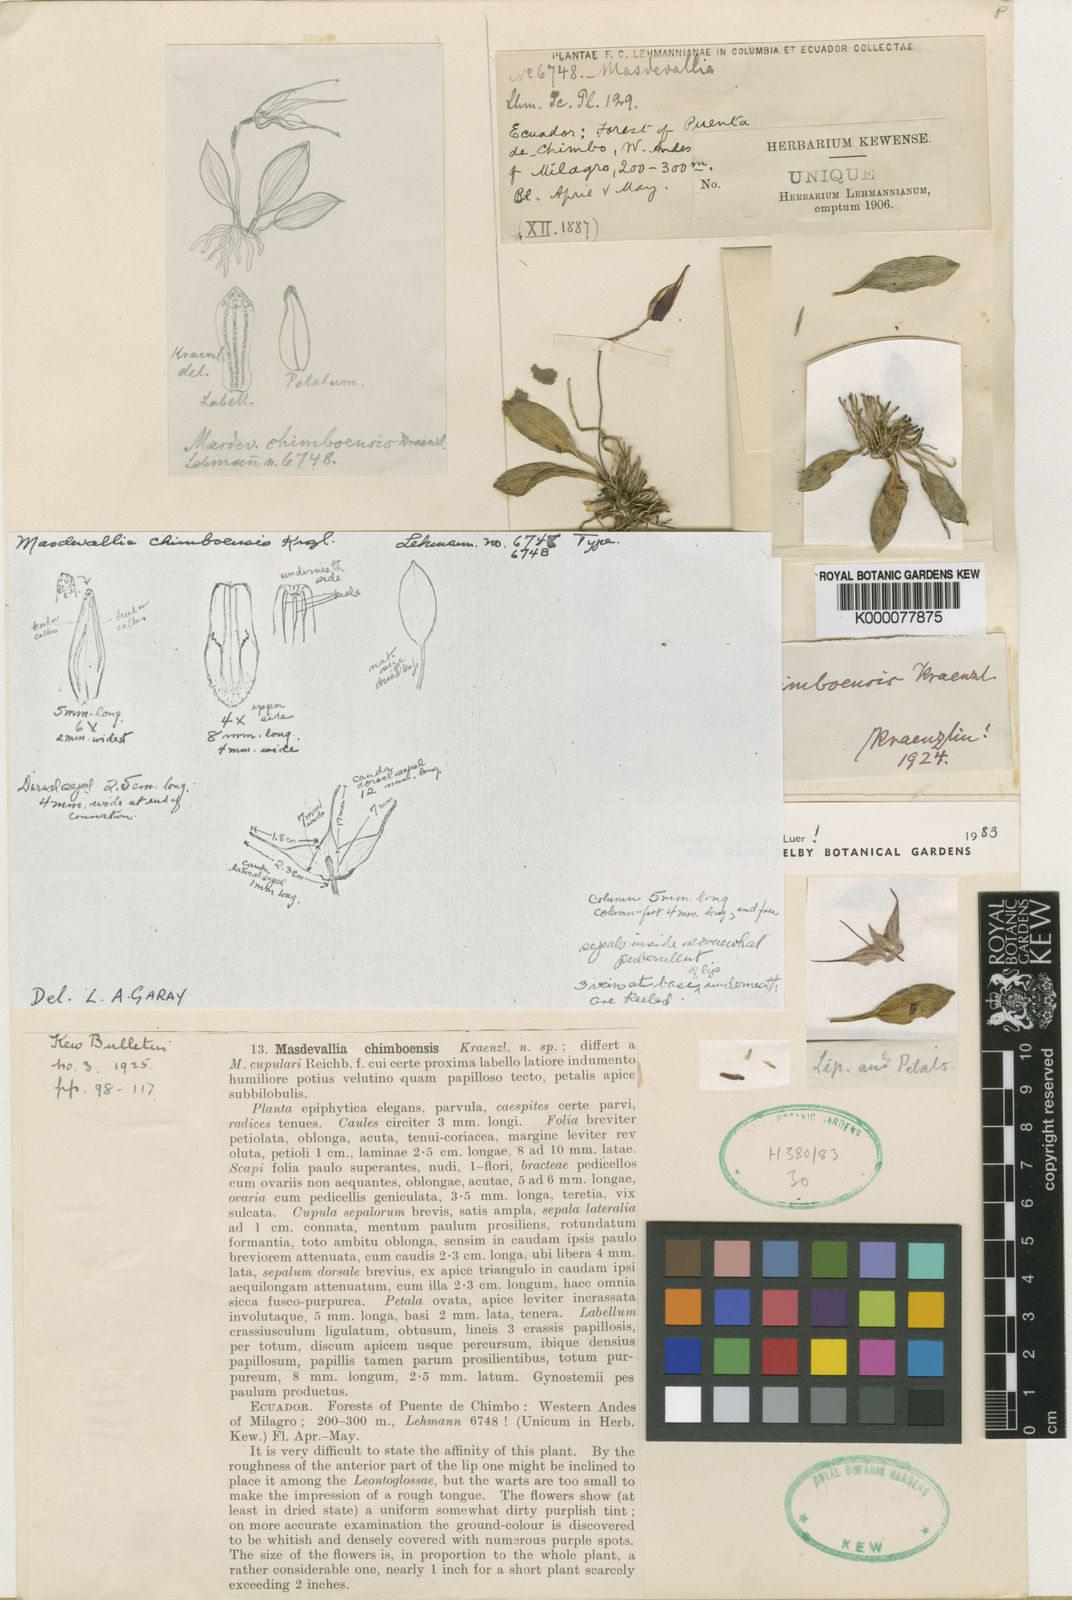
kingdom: Plantae
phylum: Tracheophyta
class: Liliopsida
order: Asparagales
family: Orchidaceae
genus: Masdevallia
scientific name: Masdevallia chimboensis
